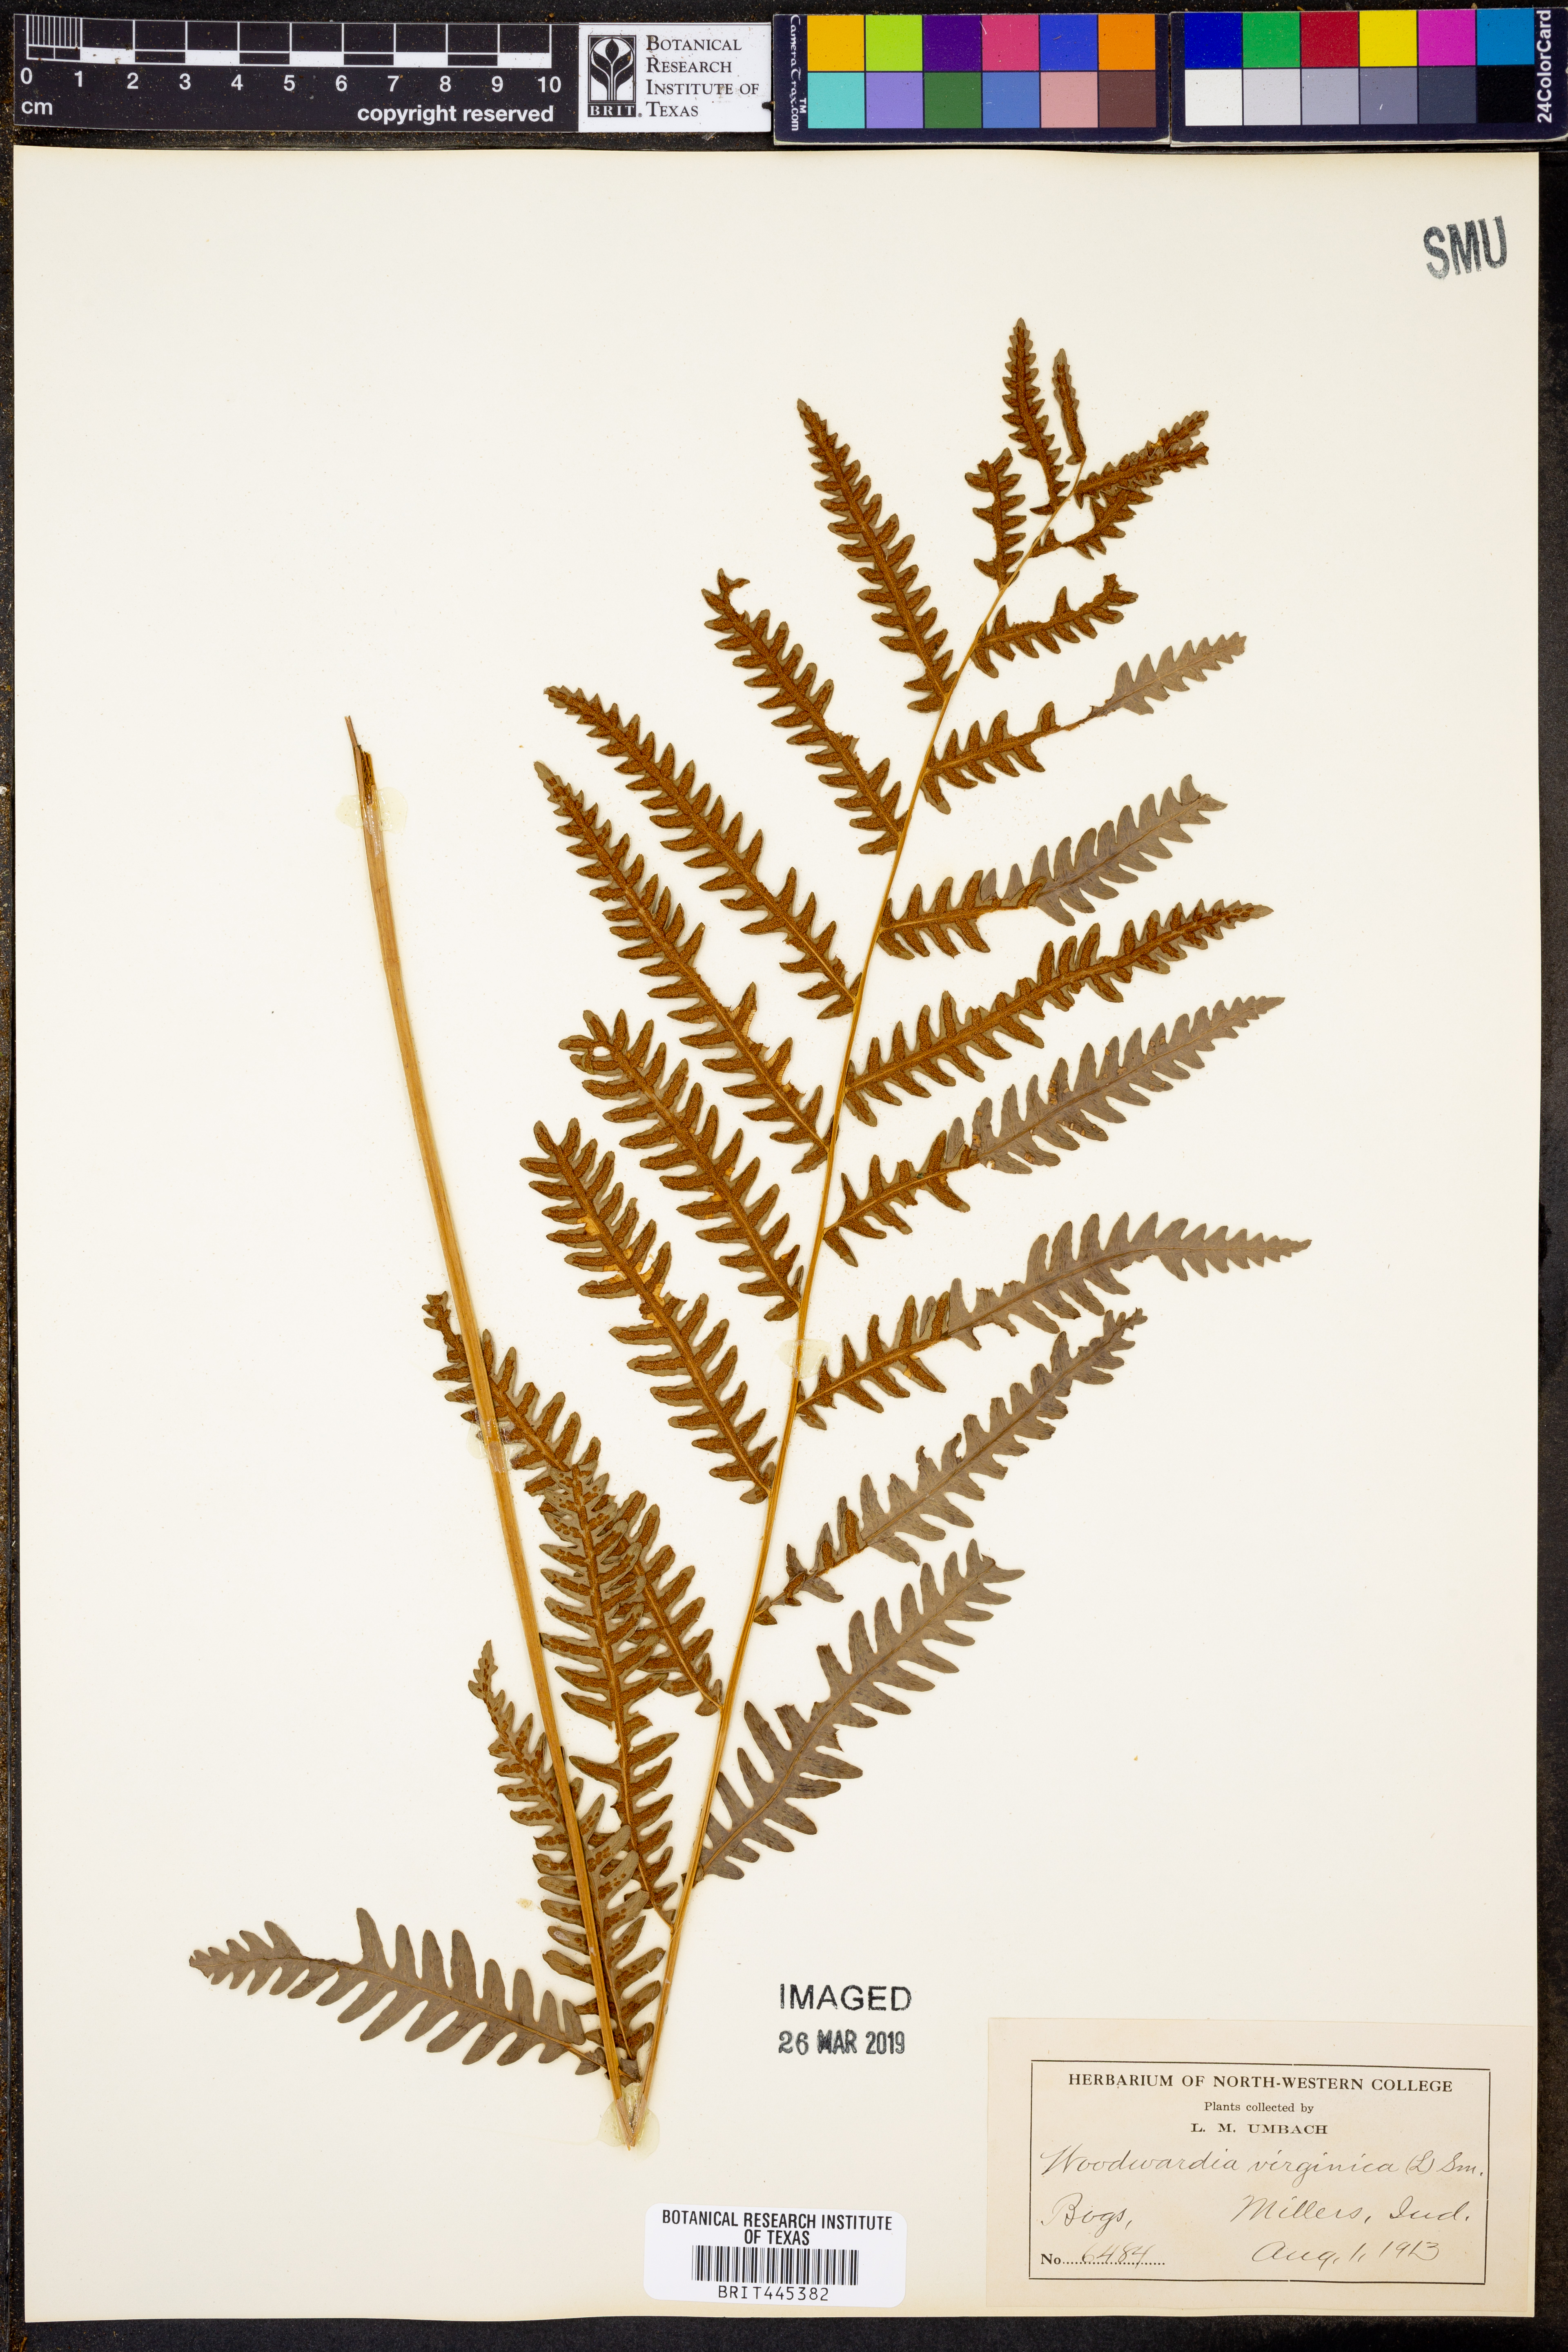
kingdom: Plantae
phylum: Tracheophyta
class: Polypodiopsida
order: Polypodiales
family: Blechnaceae
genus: Anchistea
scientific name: Anchistea virginica
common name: Virginia chain fern
